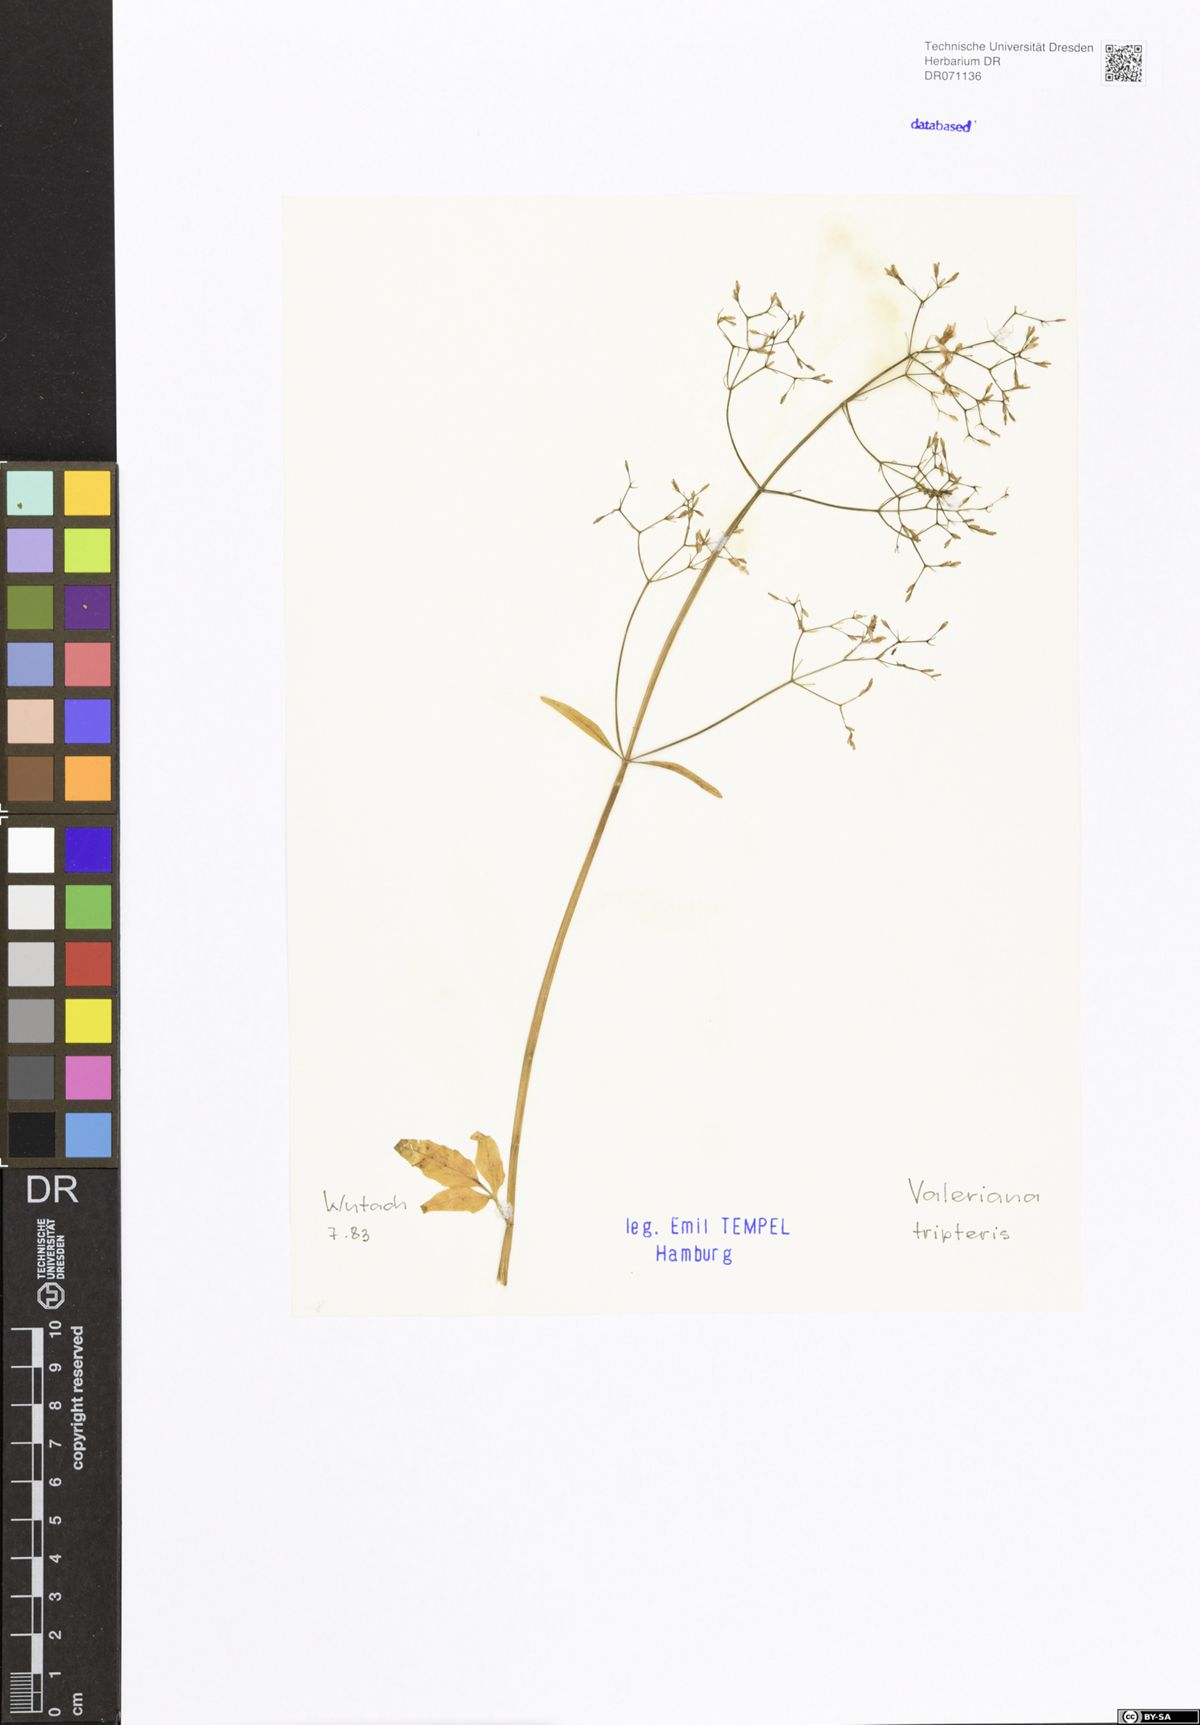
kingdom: Plantae
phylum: Tracheophyta
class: Magnoliopsida
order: Dipsacales
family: Caprifoliaceae
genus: Valeriana
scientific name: Valeriana tripteris
